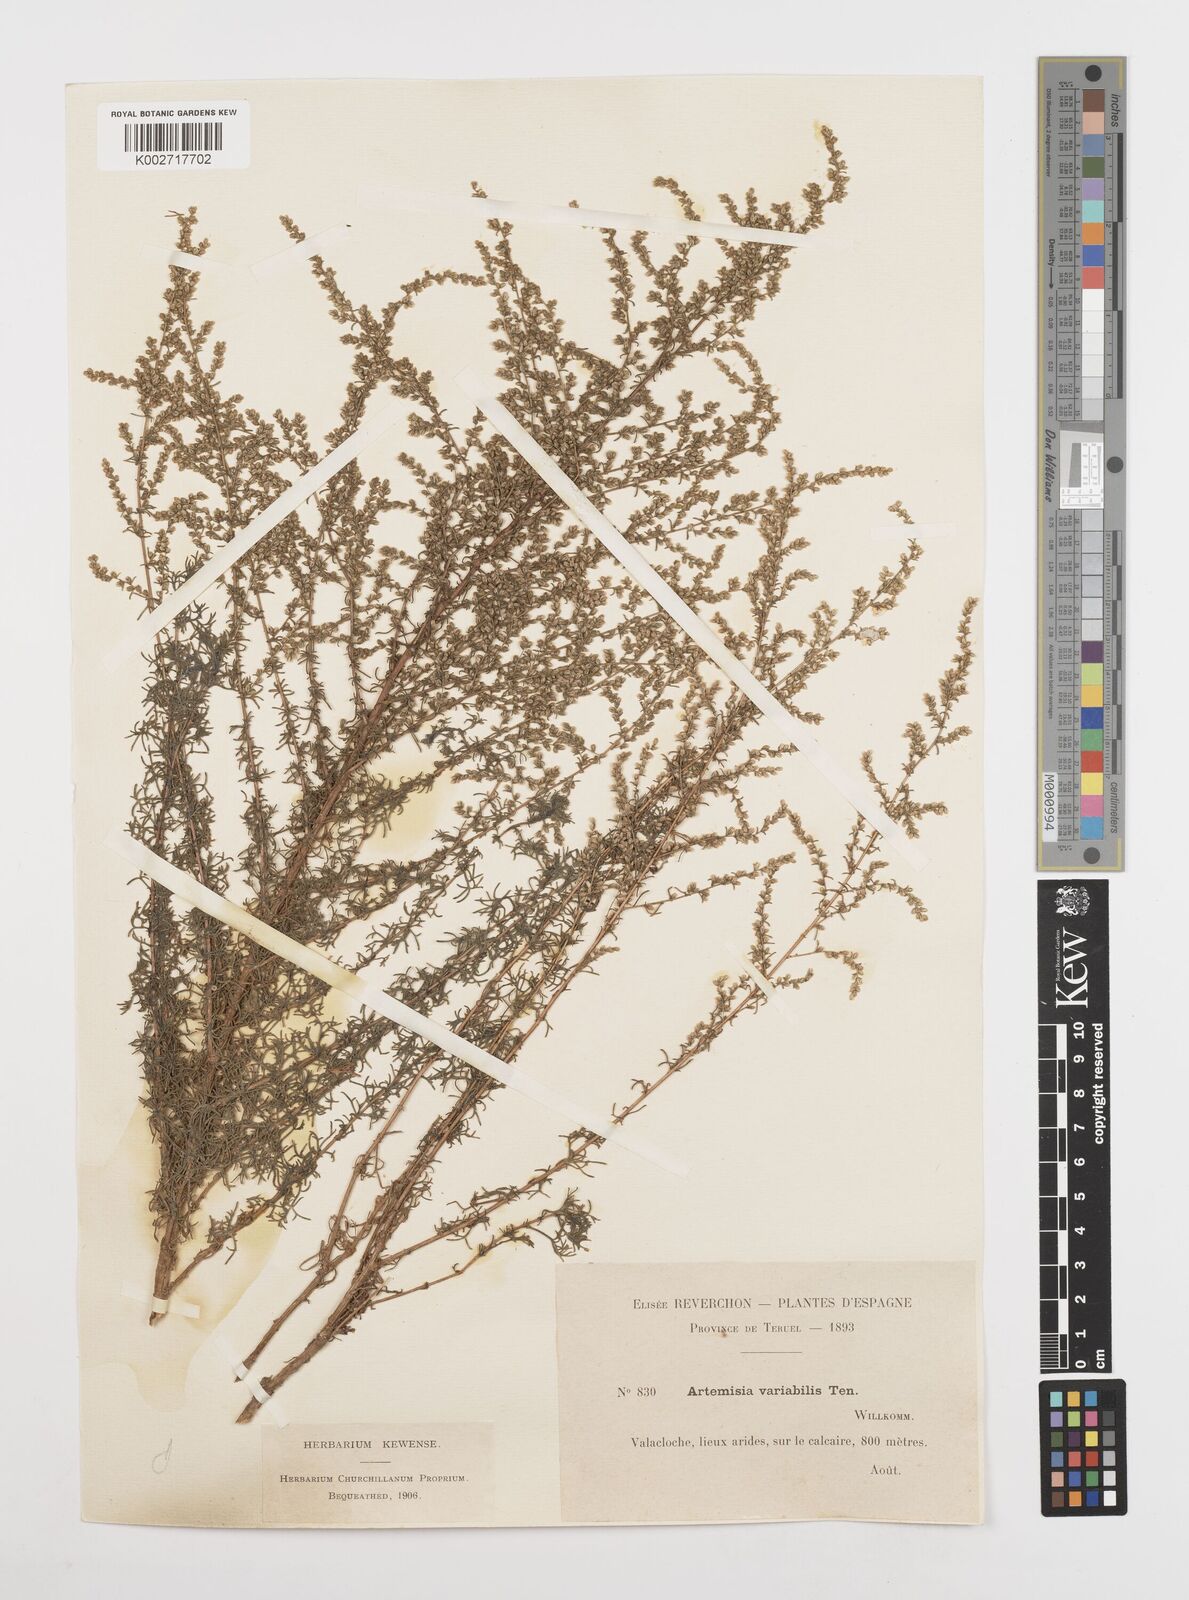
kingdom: Plantae
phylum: Tracheophyta
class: Magnoliopsida
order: Asterales
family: Asteraceae
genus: Artemisia
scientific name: Artemisia campestris
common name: Field wormwood
